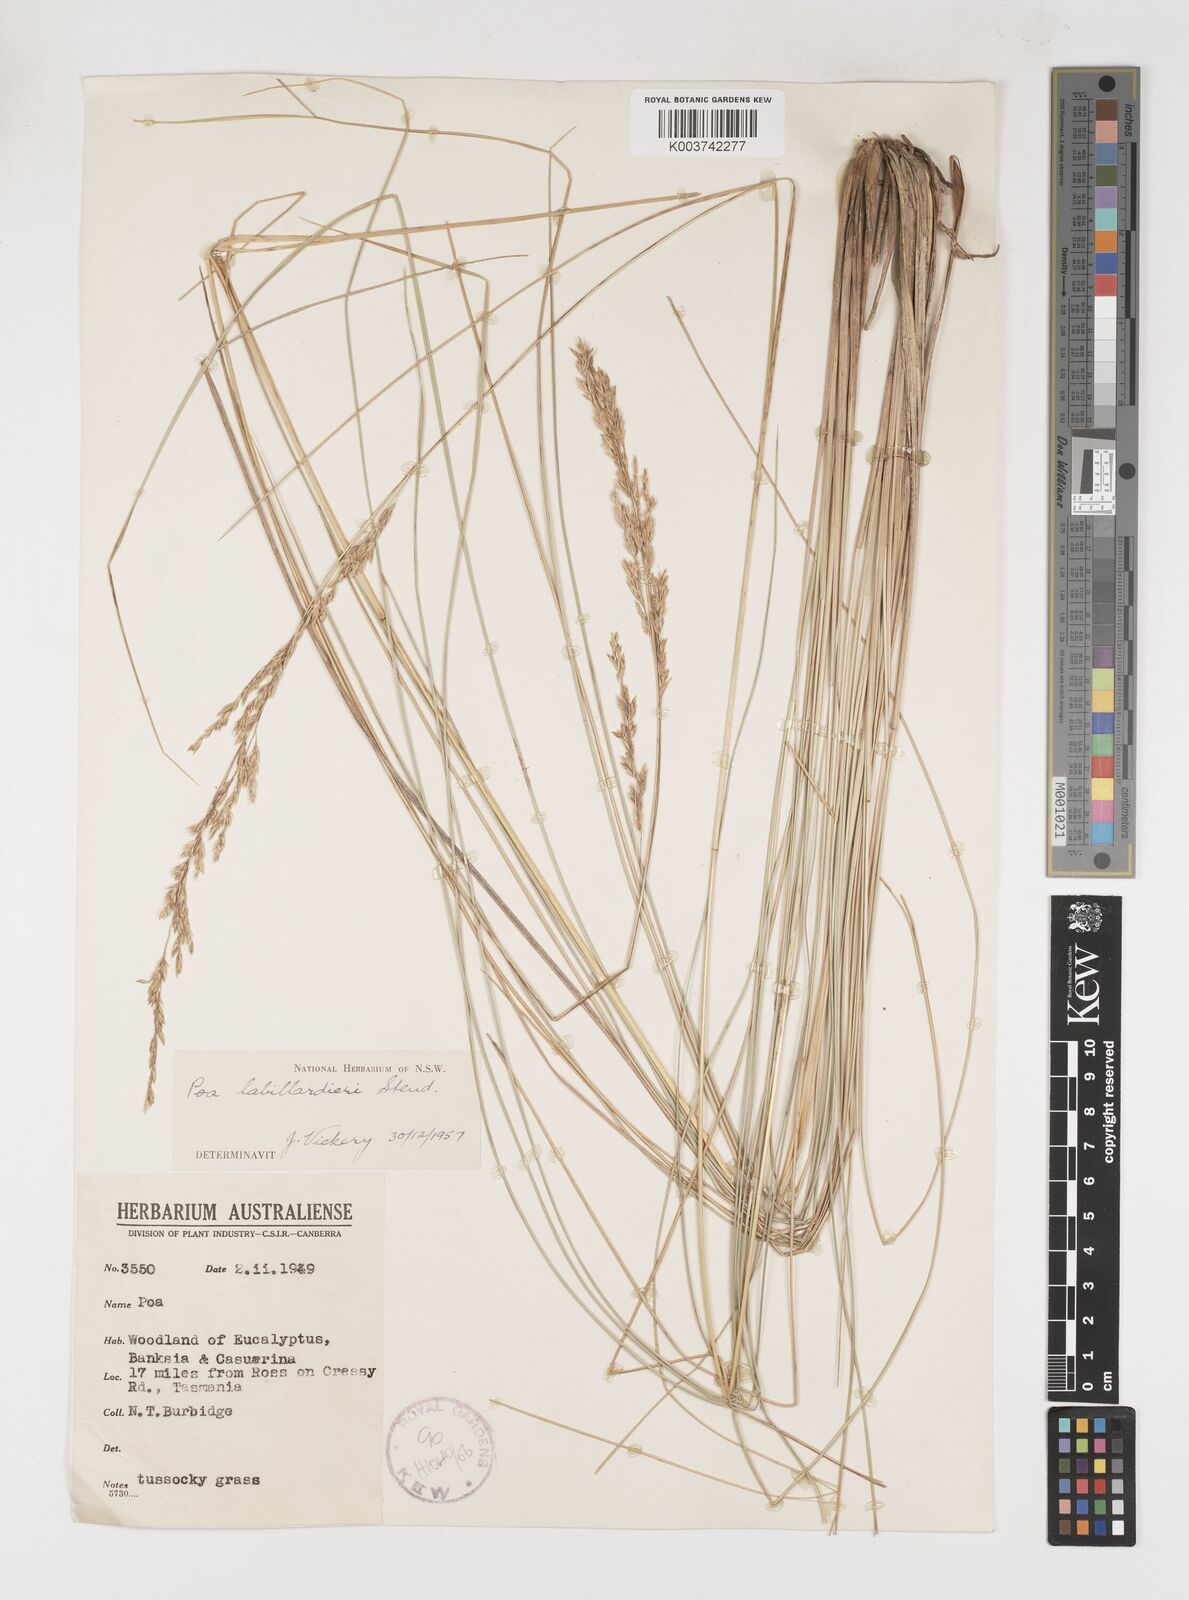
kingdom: Plantae
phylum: Tracheophyta
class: Liliopsida
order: Poales
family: Poaceae
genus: Poa
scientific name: Poa labillardierei
